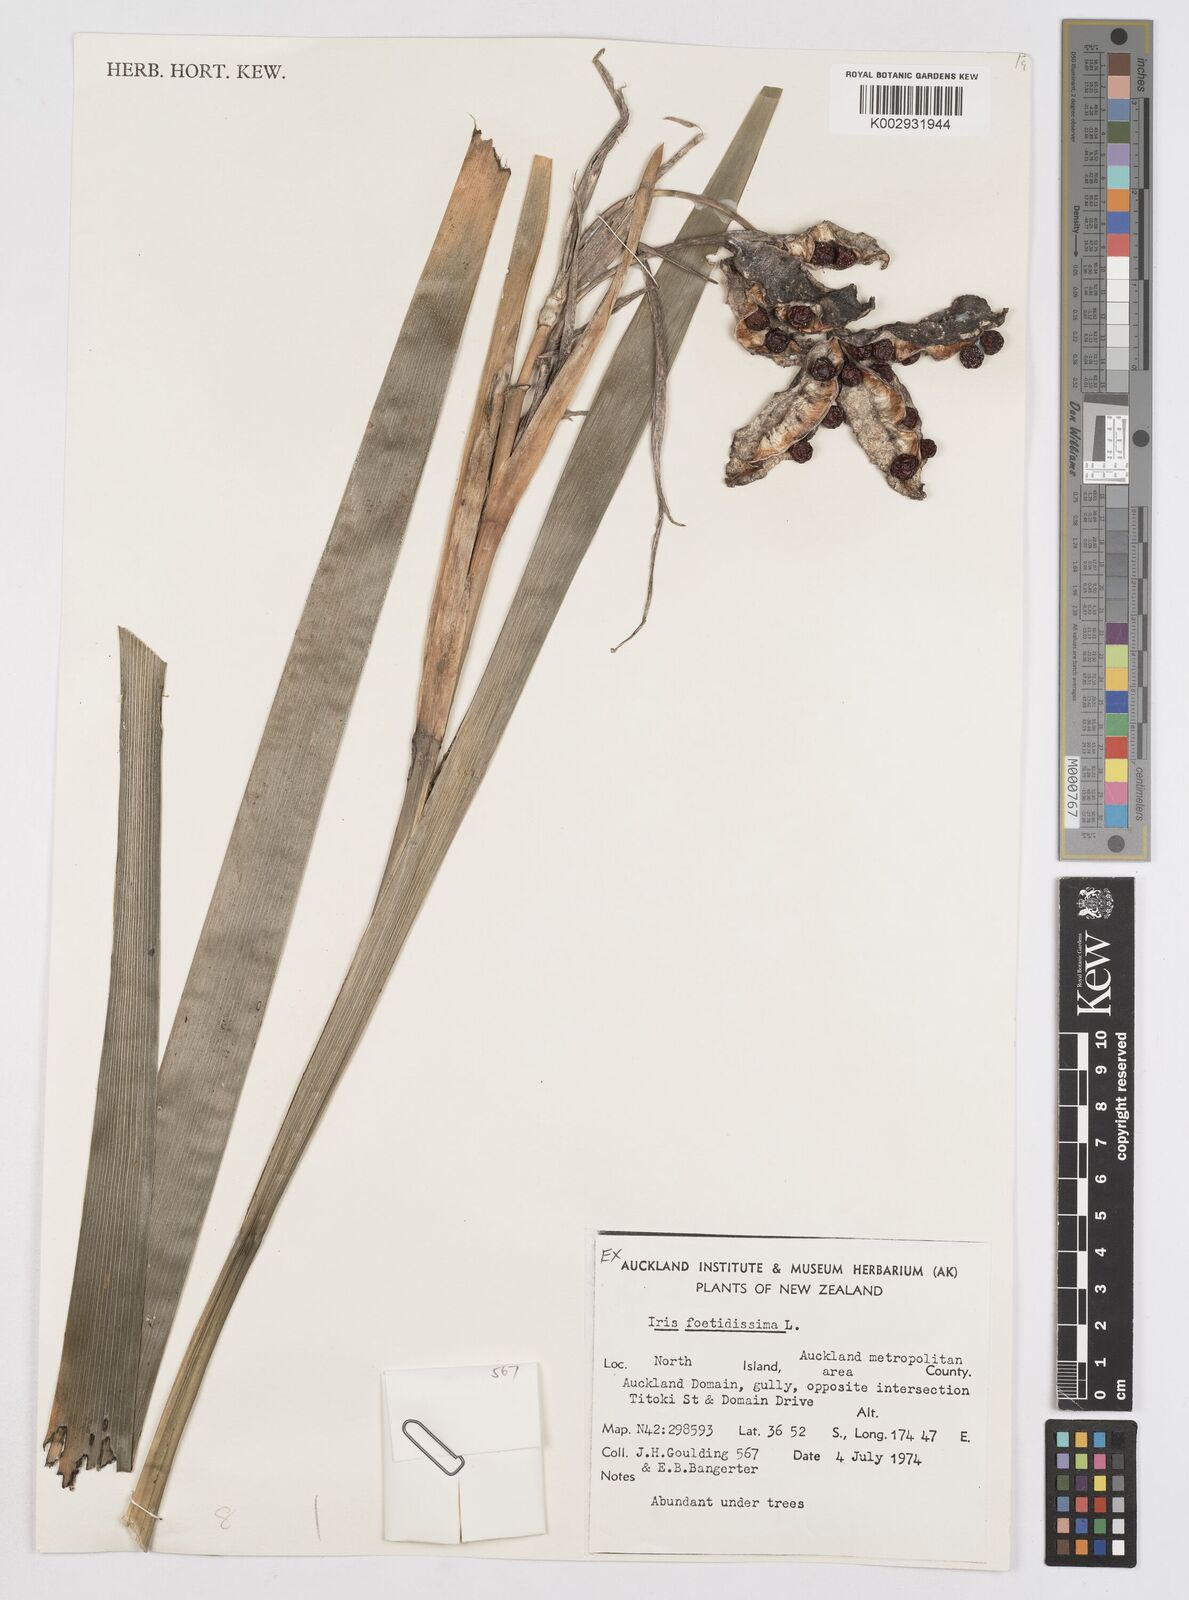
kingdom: Plantae
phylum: Tracheophyta
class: Liliopsida
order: Asparagales
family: Iridaceae
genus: Iris
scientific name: Iris foetidissima
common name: Stinking iris
